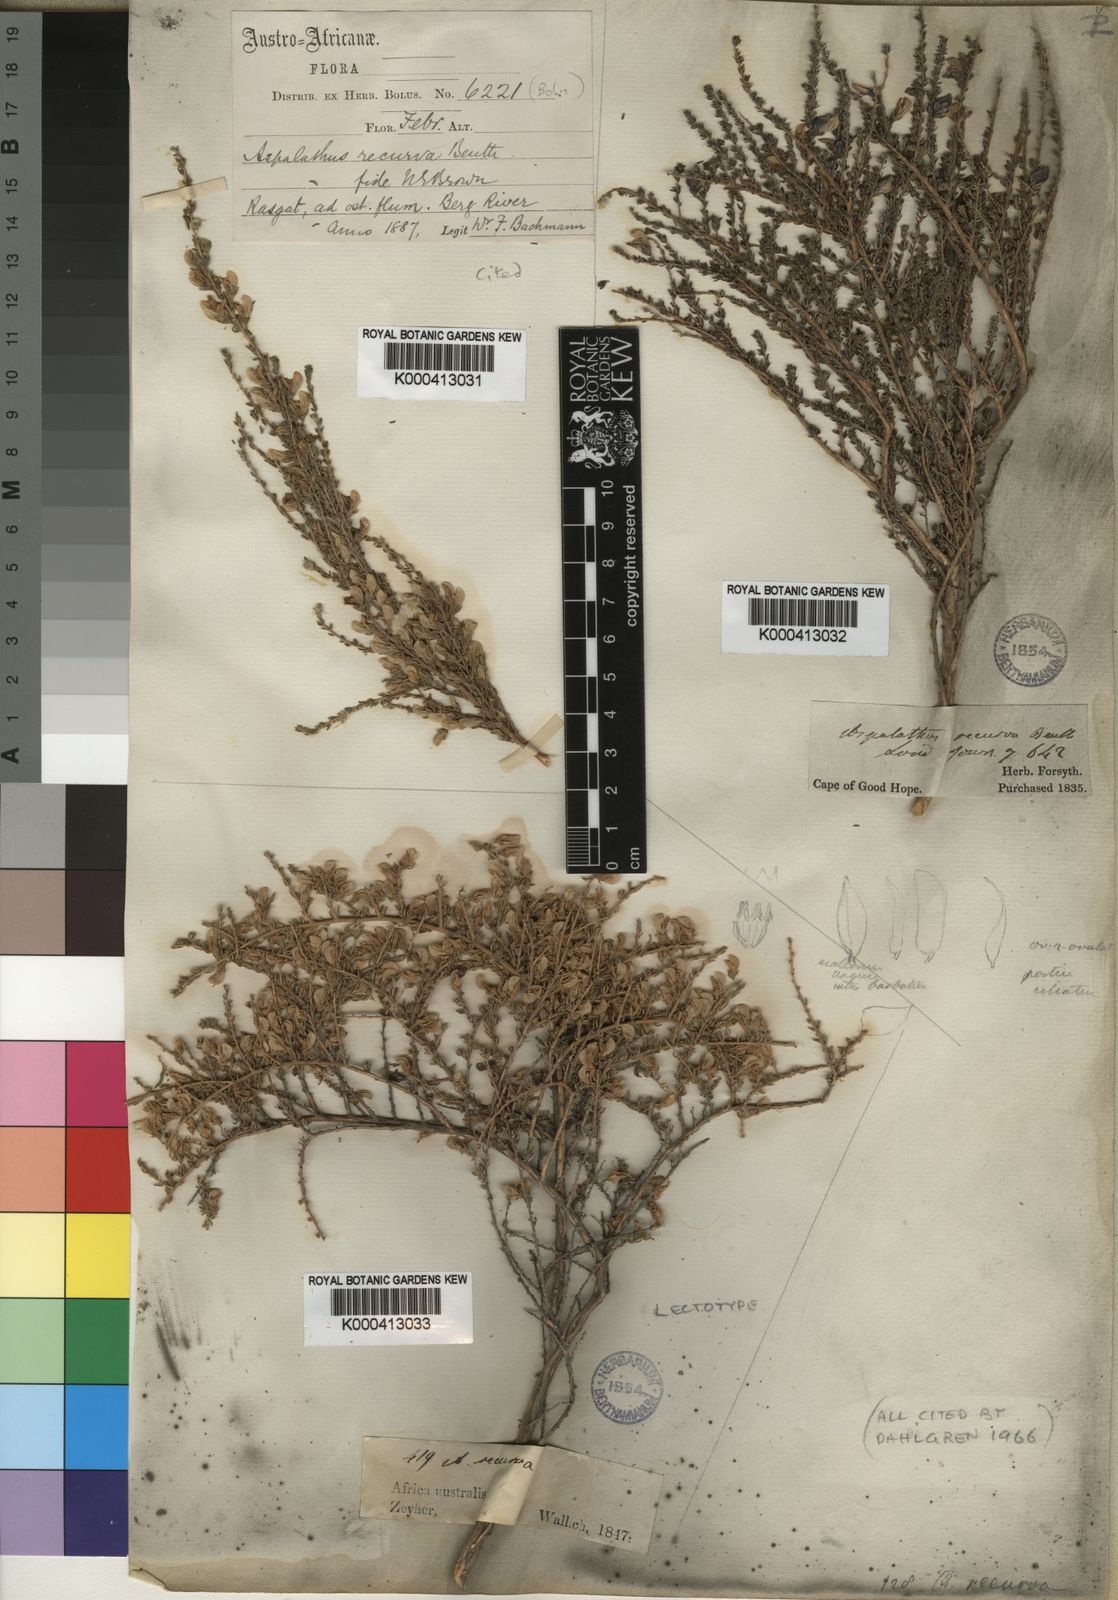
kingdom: Plantae
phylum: Tracheophyta
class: Magnoliopsida
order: Fabales
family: Fabaceae
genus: Aspalathus
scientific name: Aspalathus recurva
